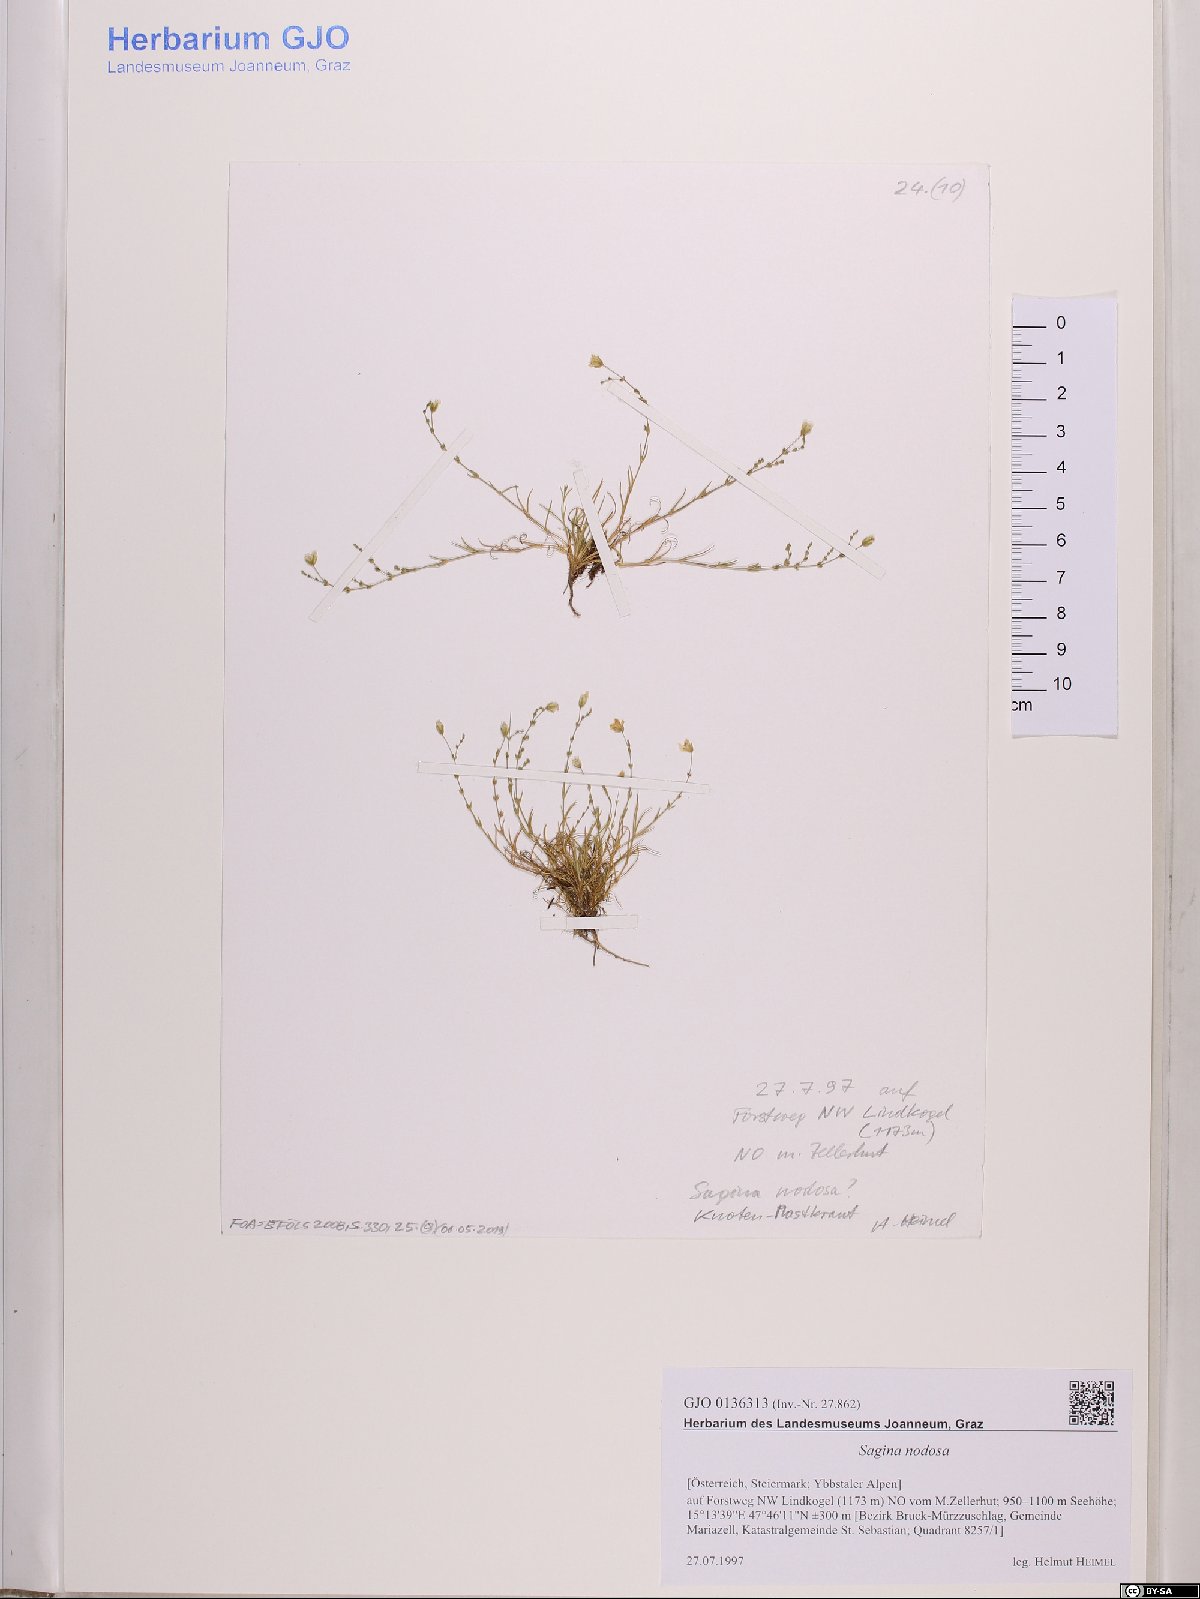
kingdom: Plantae
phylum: Tracheophyta
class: Magnoliopsida
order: Caryophyllales
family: Caryophyllaceae
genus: Sagina
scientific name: Sagina nodosa
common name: Knotted pearlwort
